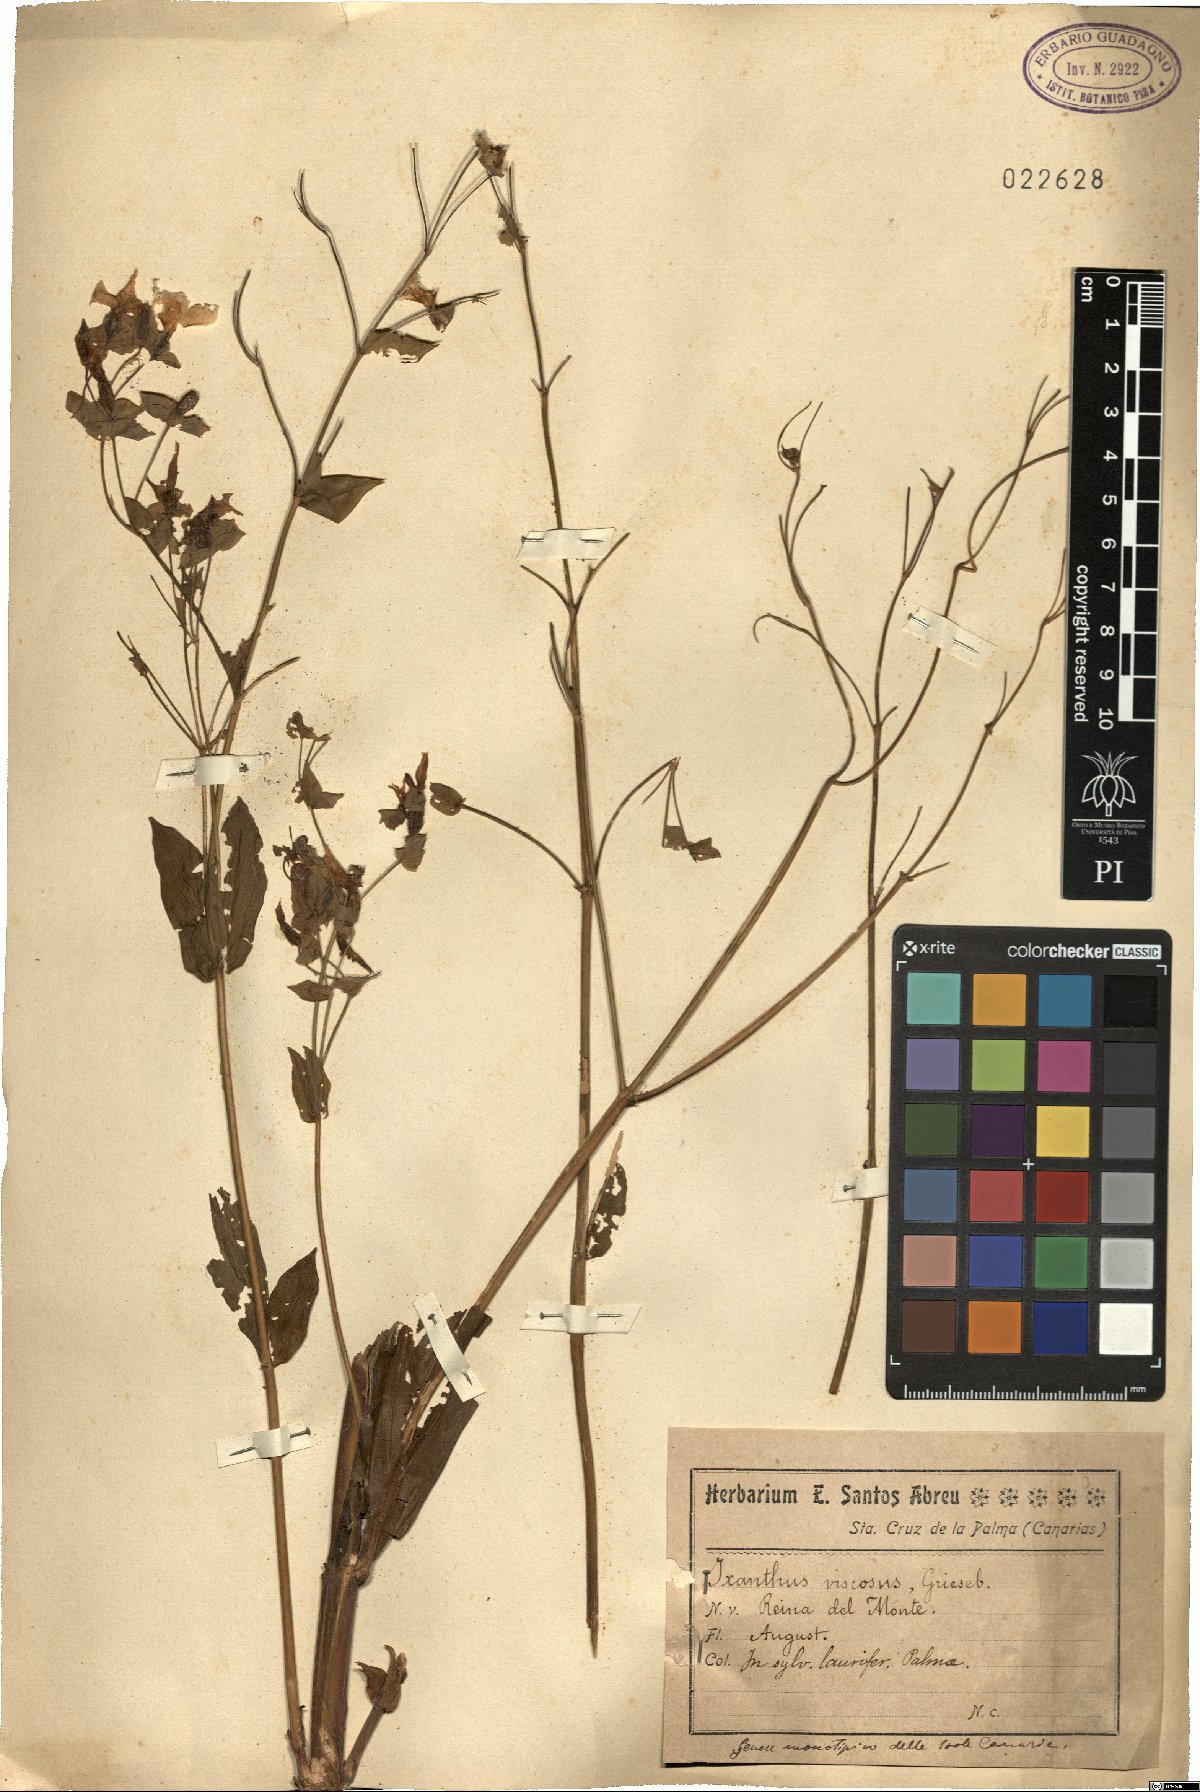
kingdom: Plantae
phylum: Tracheophyta
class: Magnoliopsida
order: Gentianales
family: Gentianaceae
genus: Ixanthus
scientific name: Ixanthus viscosus
